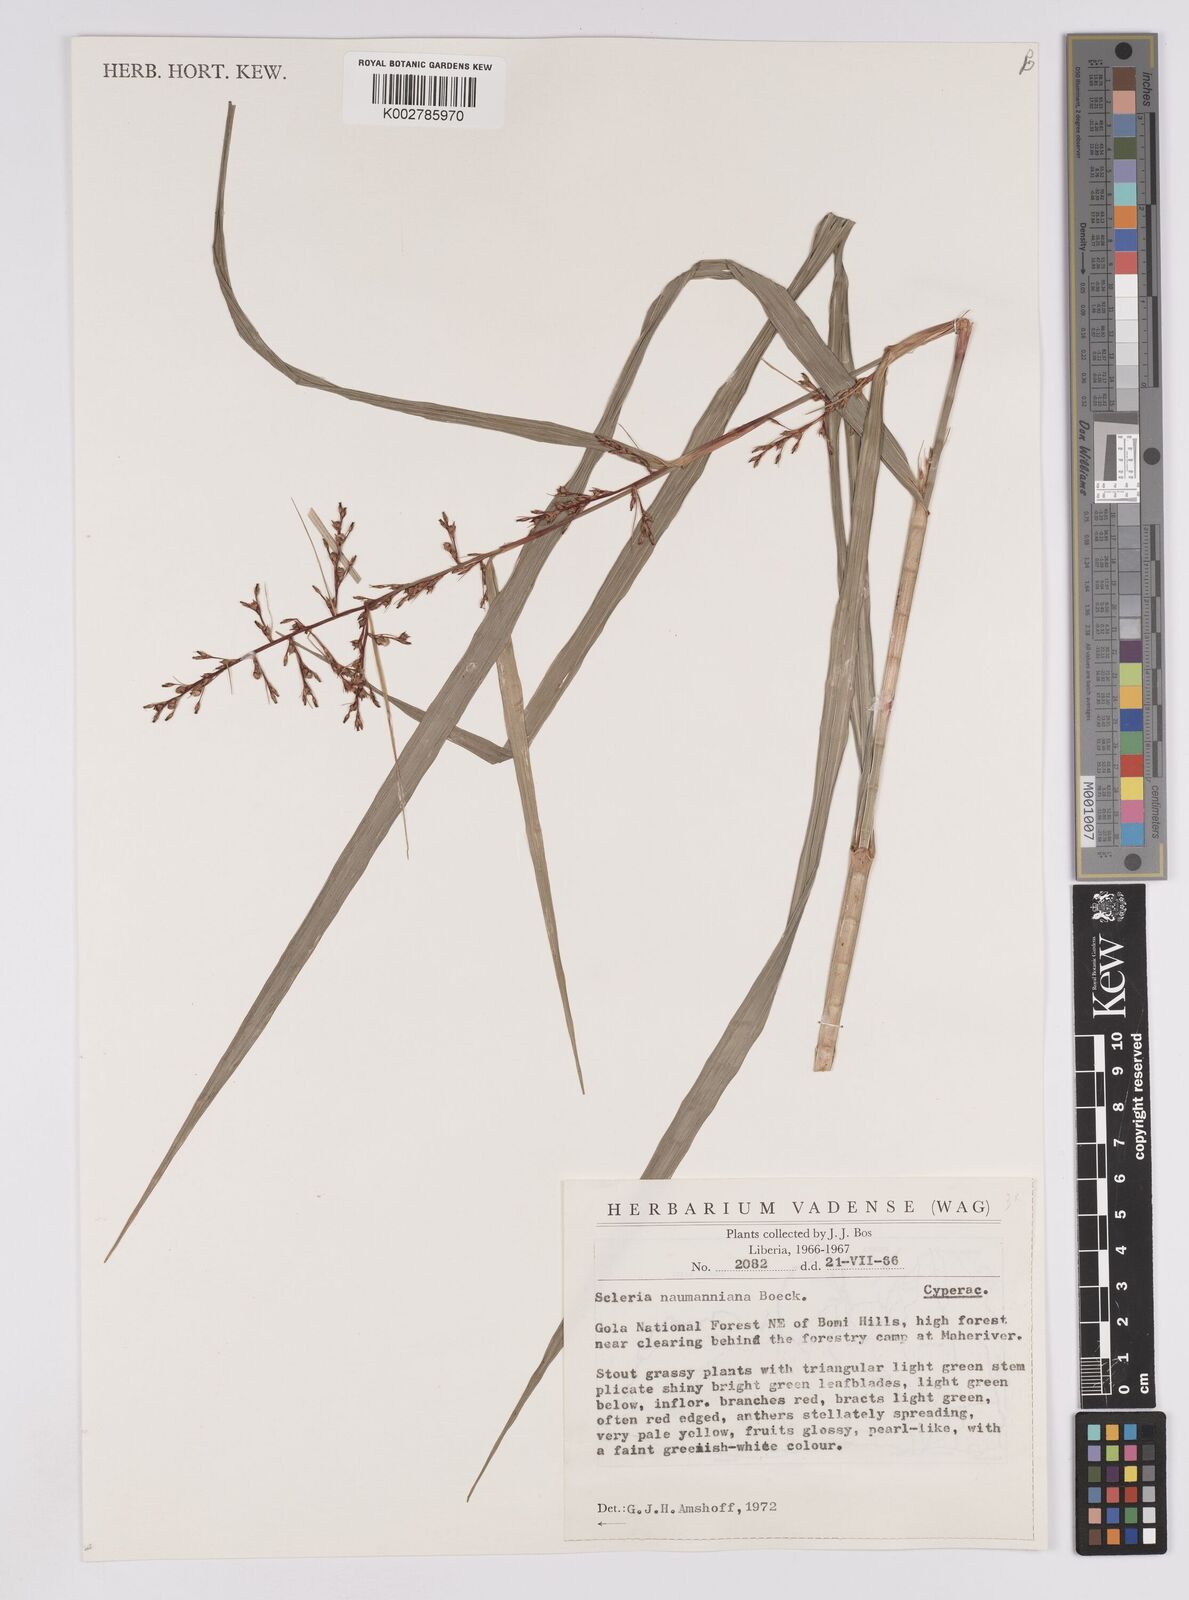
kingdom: Plantae
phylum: Tracheophyta
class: Liliopsida
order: Poales
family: Cyperaceae
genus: Scleria
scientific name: Scleria naumanniana
